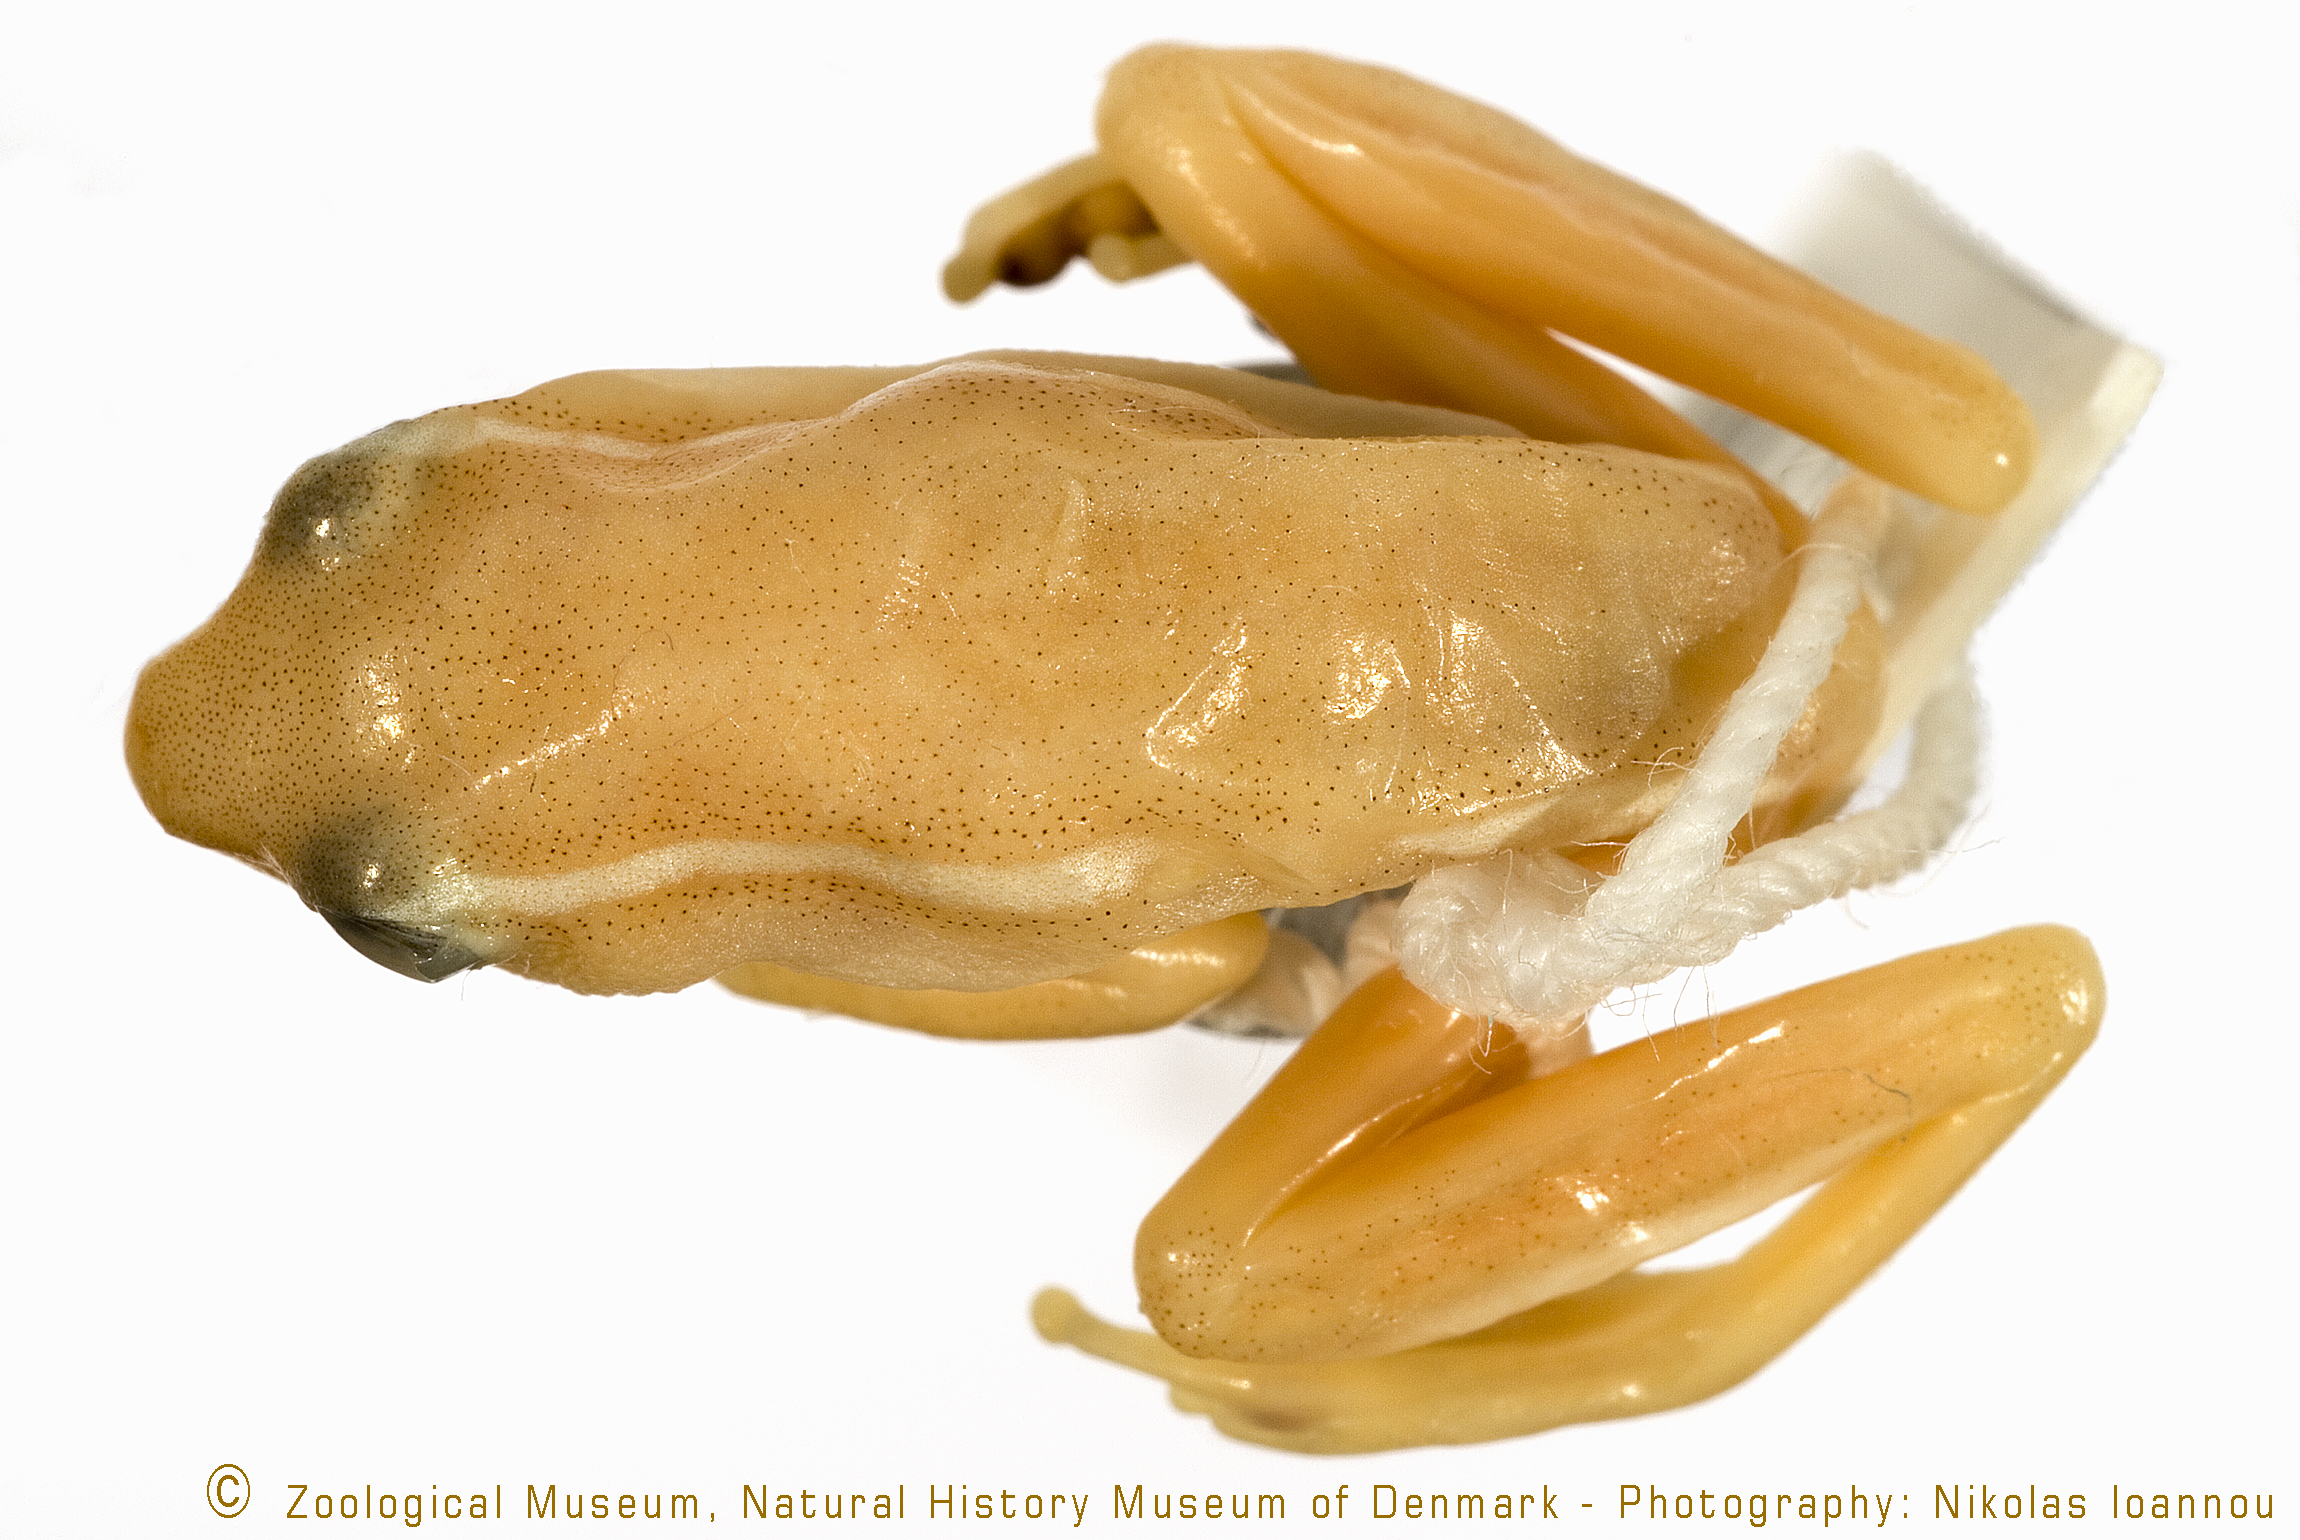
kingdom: Animalia
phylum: Chordata
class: Amphibia
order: Anura
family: Hyperoliidae
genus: Hyperolius
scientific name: Hyperolius nasutus
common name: Sharp-and-blunt-snouted sedge frog
